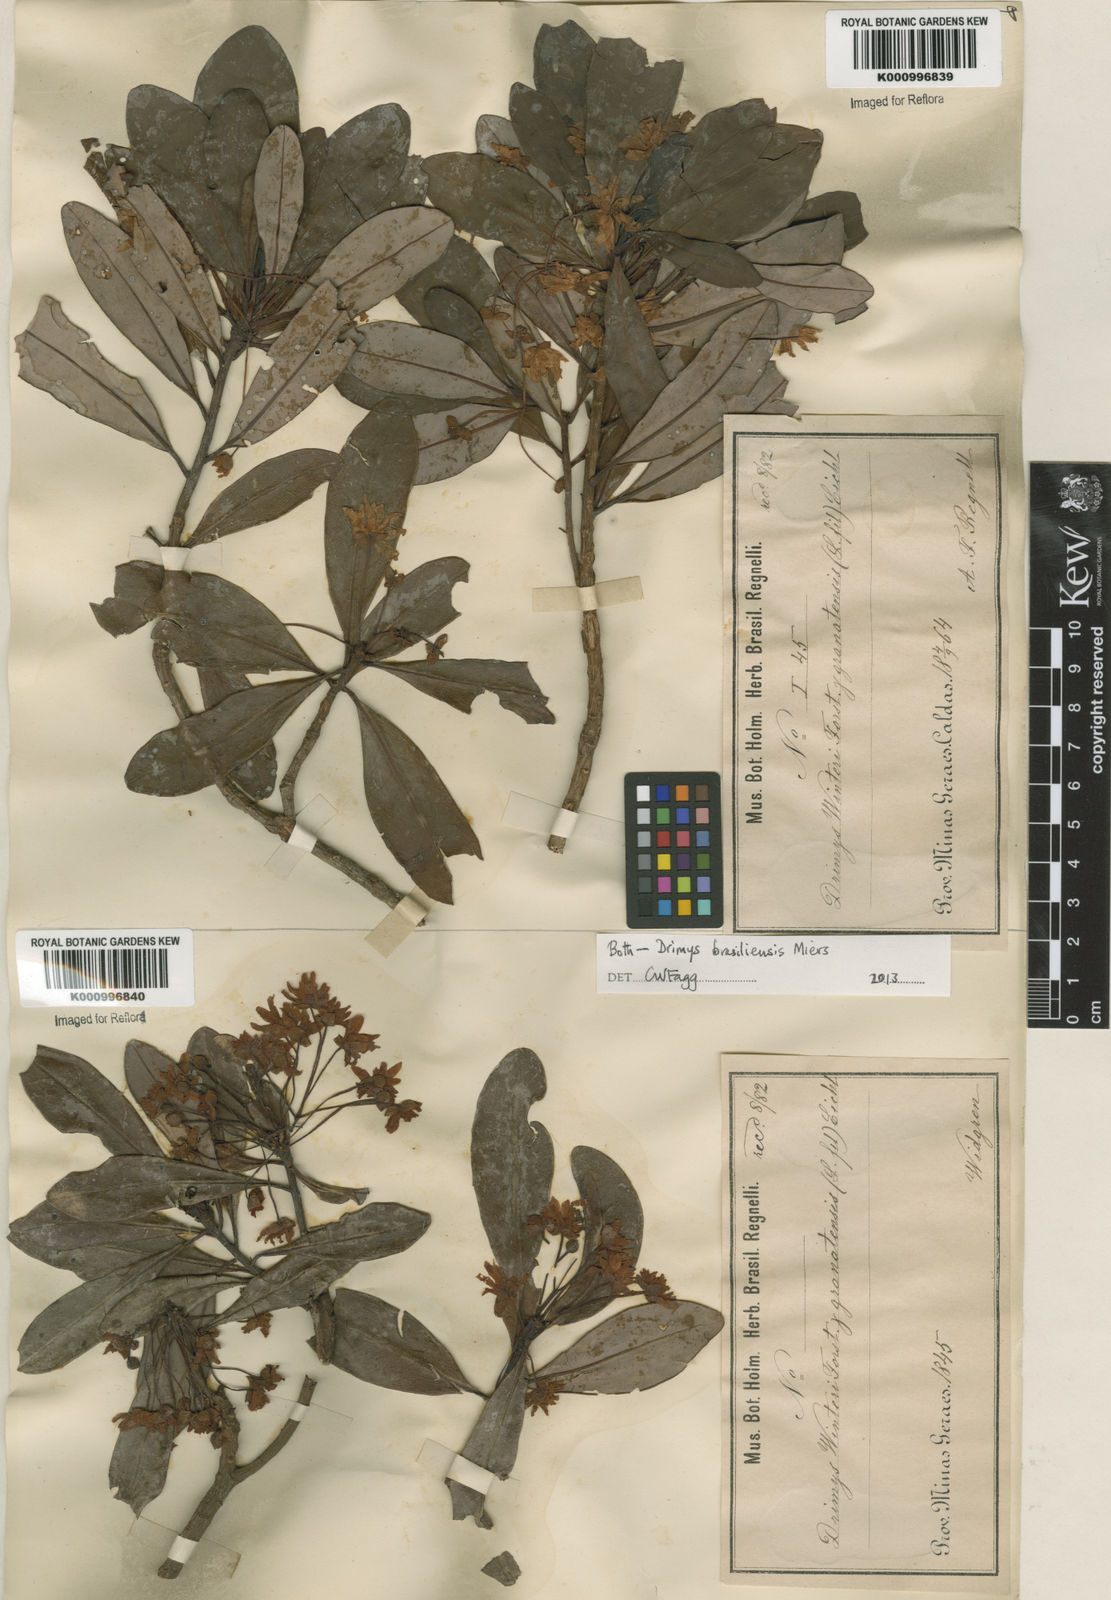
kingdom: Plantae
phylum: Tracheophyta
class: Magnoliopsida
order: Canellales
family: Winteraceae
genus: Drimys
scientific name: Drimys brasiliensis
